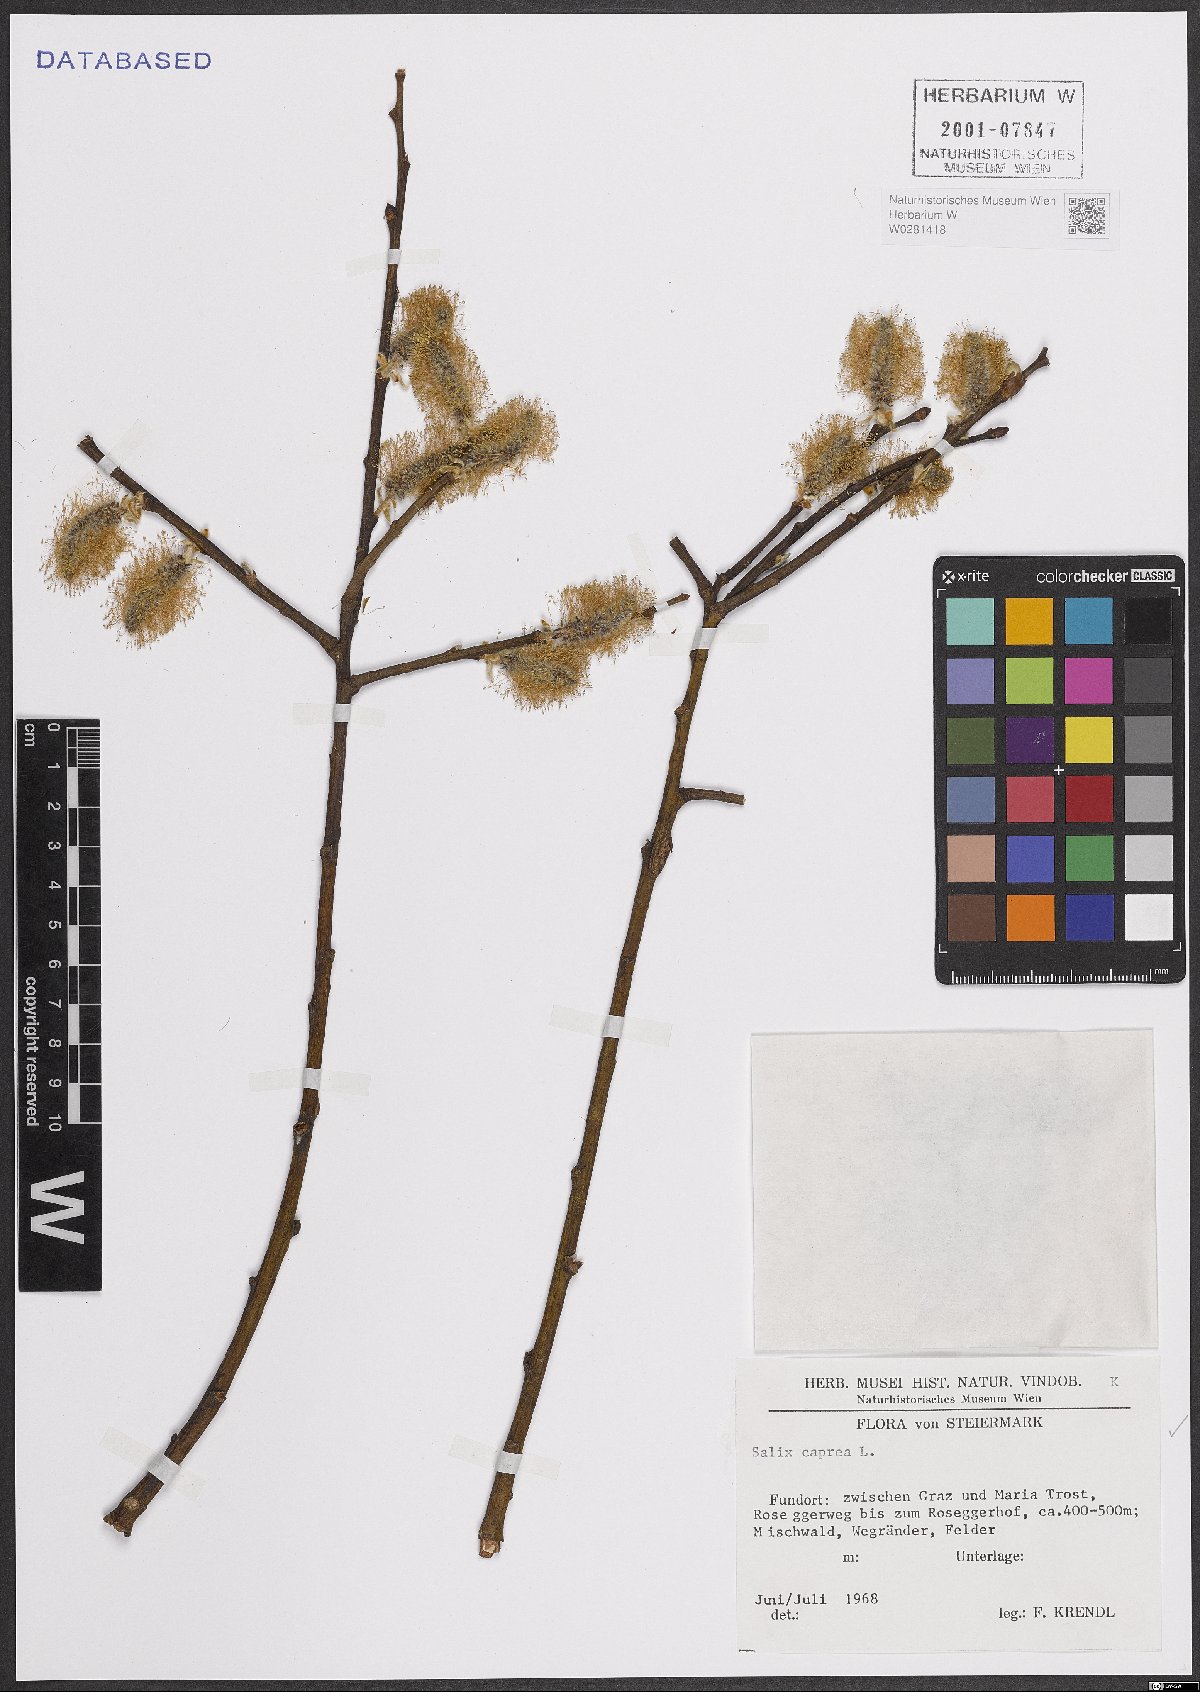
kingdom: Plantae
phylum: Tracheophyta
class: Magnoliopsida
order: Malpighiales
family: Salicaceae
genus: Salix
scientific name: Salix caprea
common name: Goat willow
